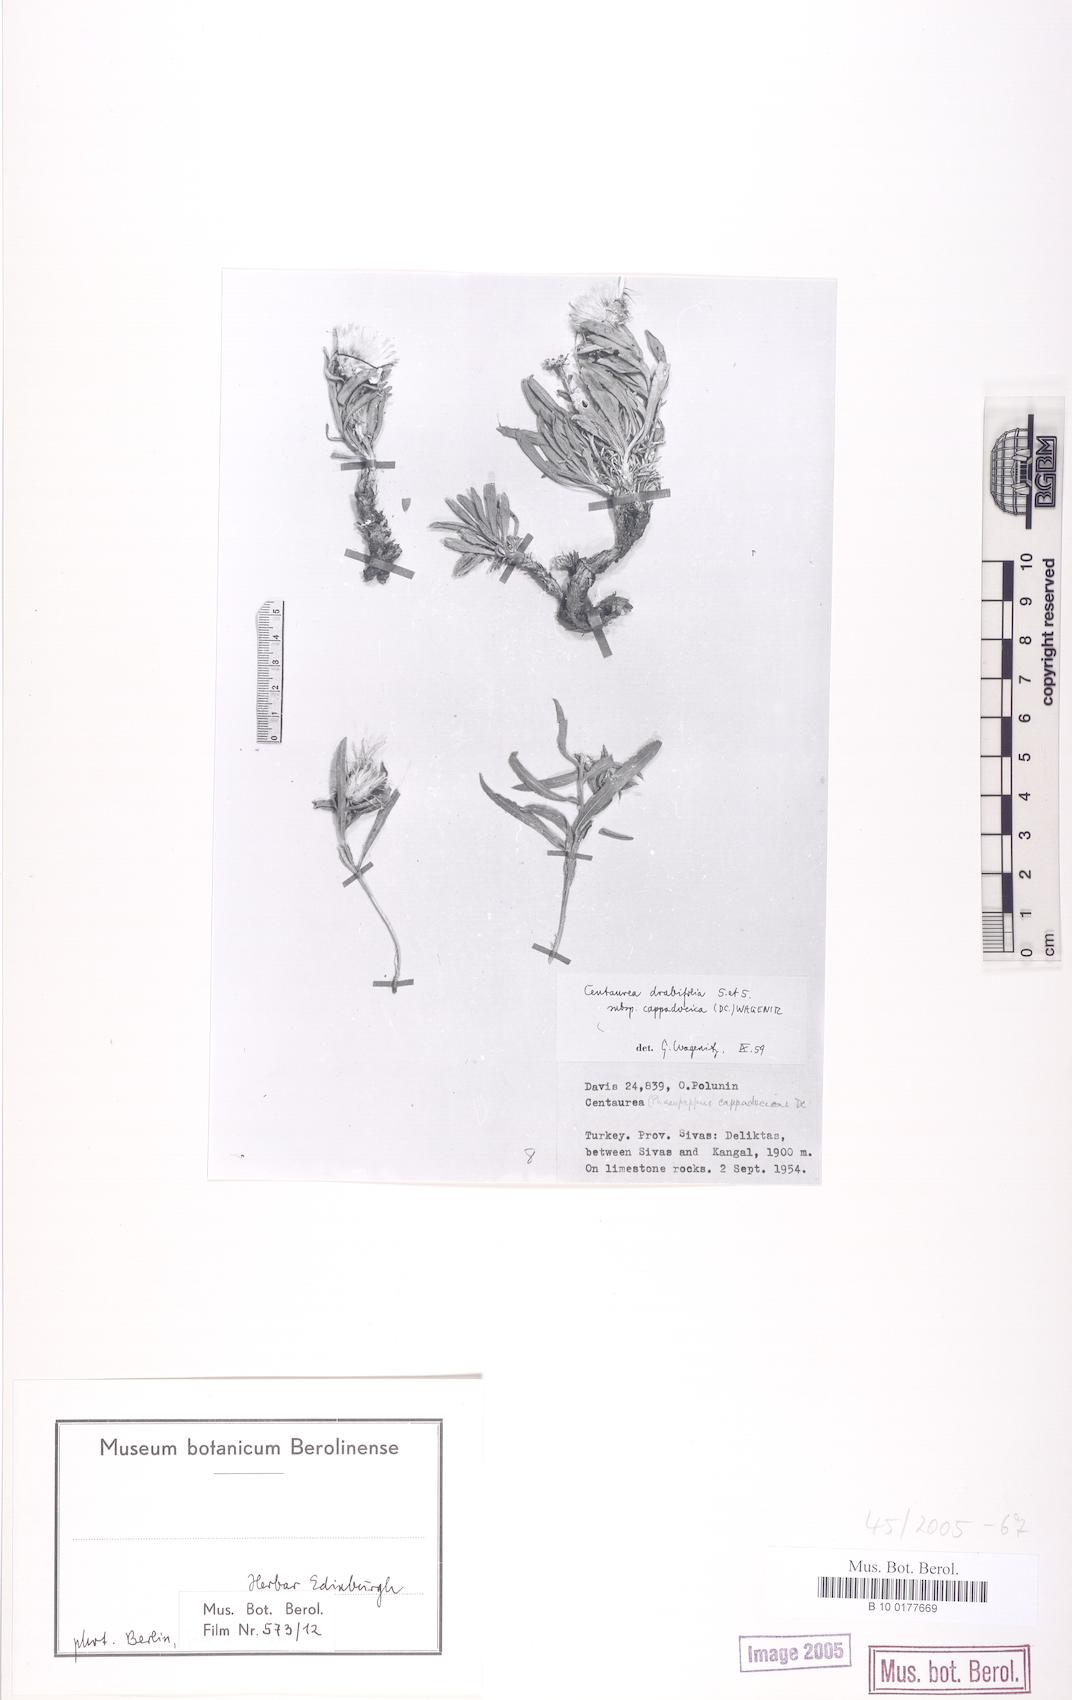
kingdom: Plantae
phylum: Tracheophyta
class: Magnoliopsida
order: Asterales
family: Asteraceae
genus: Centaurea
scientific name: Centaurea drabifolia
